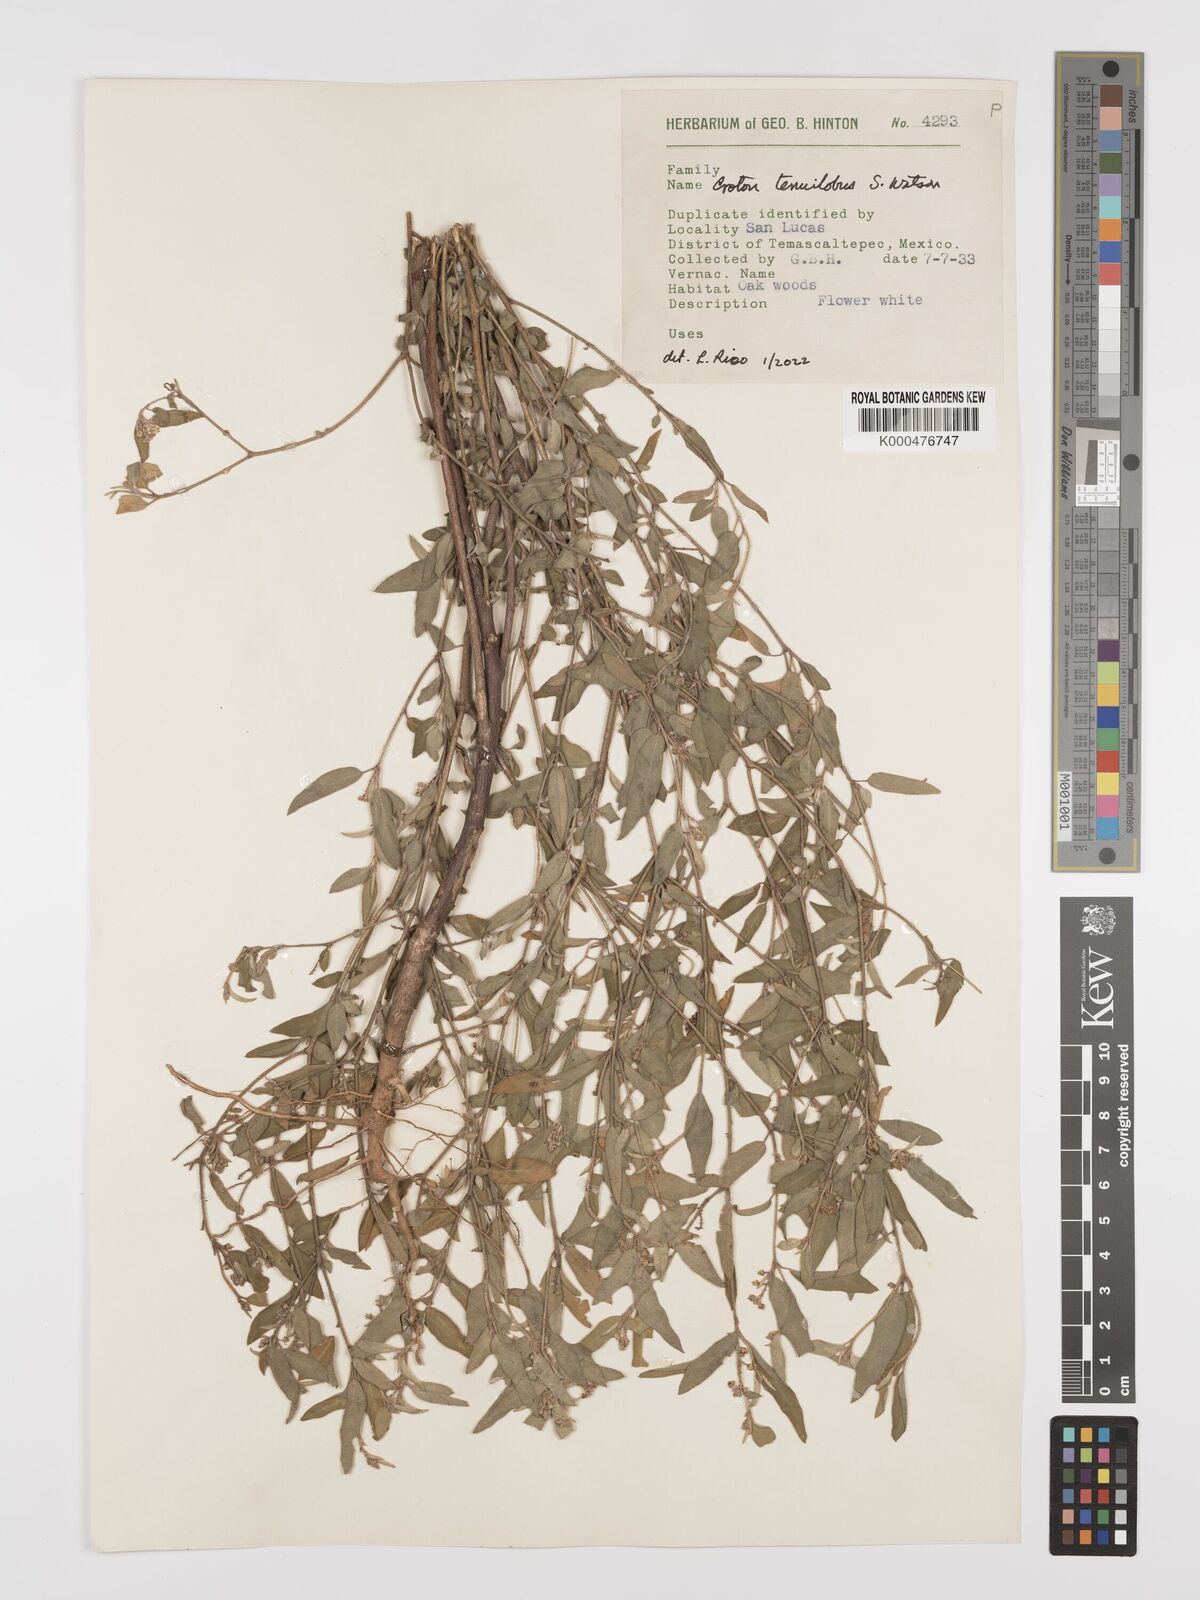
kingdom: Plantae
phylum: Tracheophyta
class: Magnoliopsida
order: Malpighiales
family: Euphorbiaceae
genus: Croton
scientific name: Croton tenuilobus
